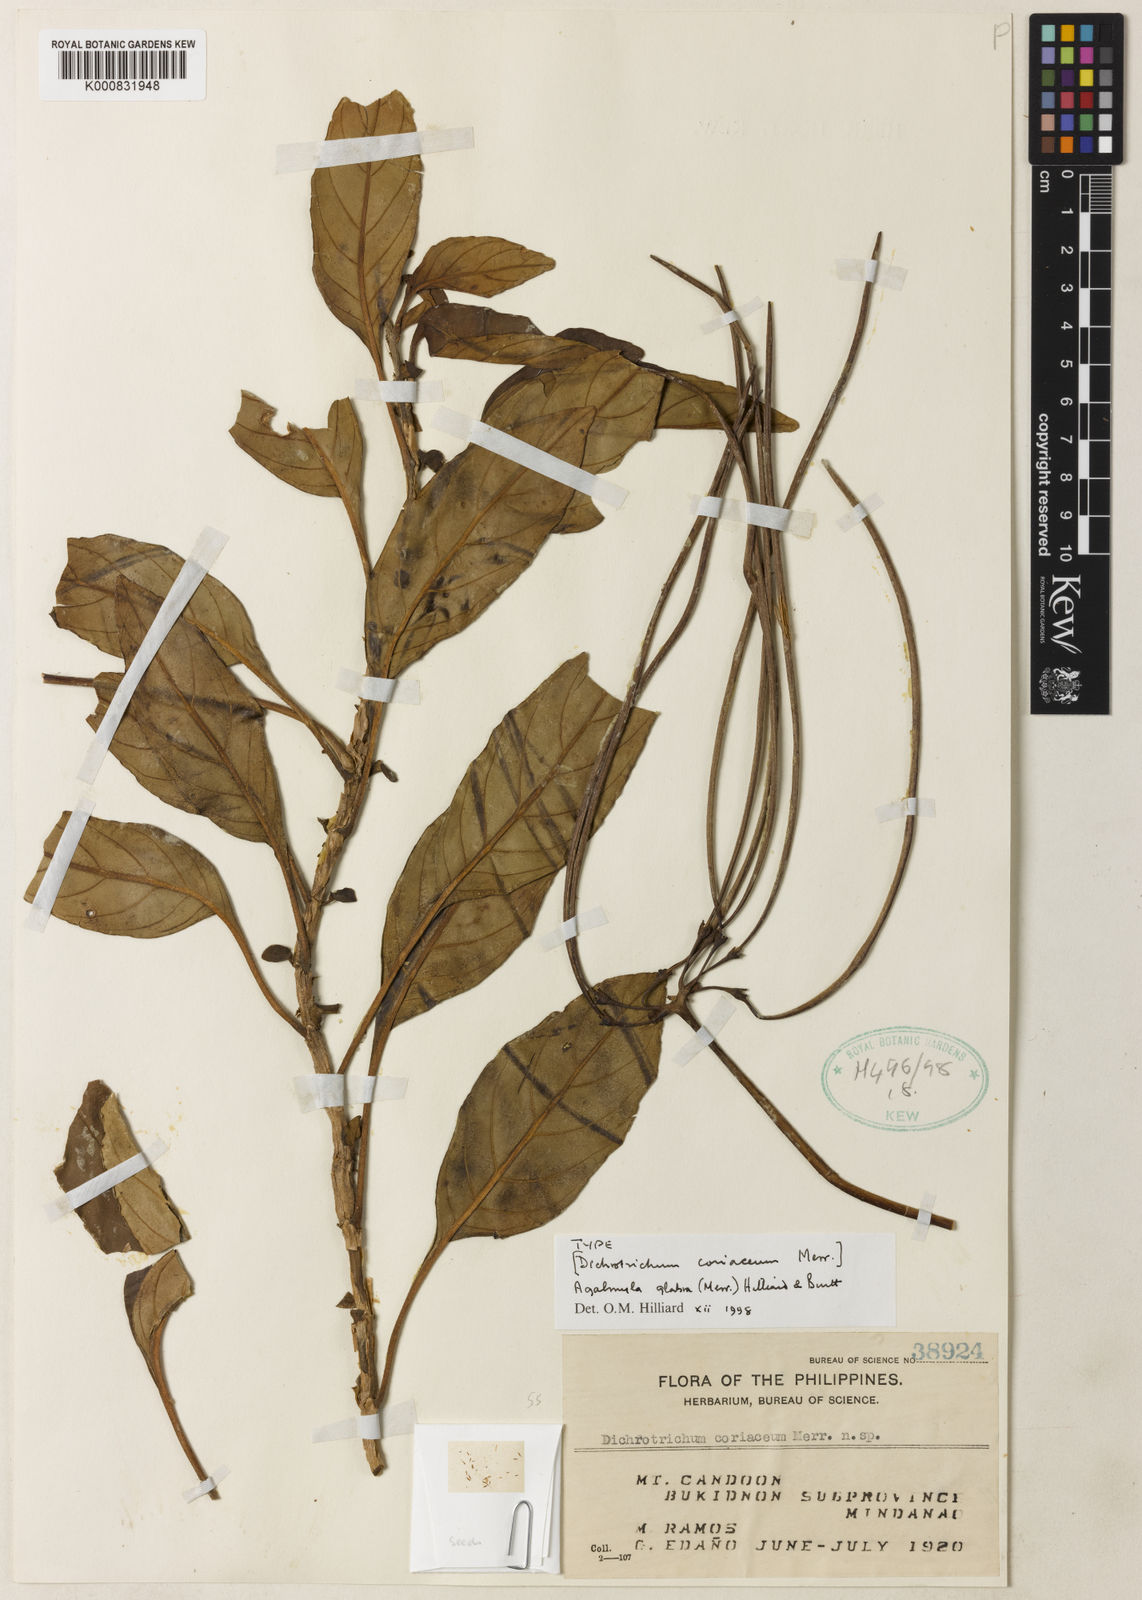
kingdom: Plantae
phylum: Tracheophyta
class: Magnoliopsida
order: Lamiales
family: Gesneriaceae
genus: Agalmyla
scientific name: Agalmyla glabra
